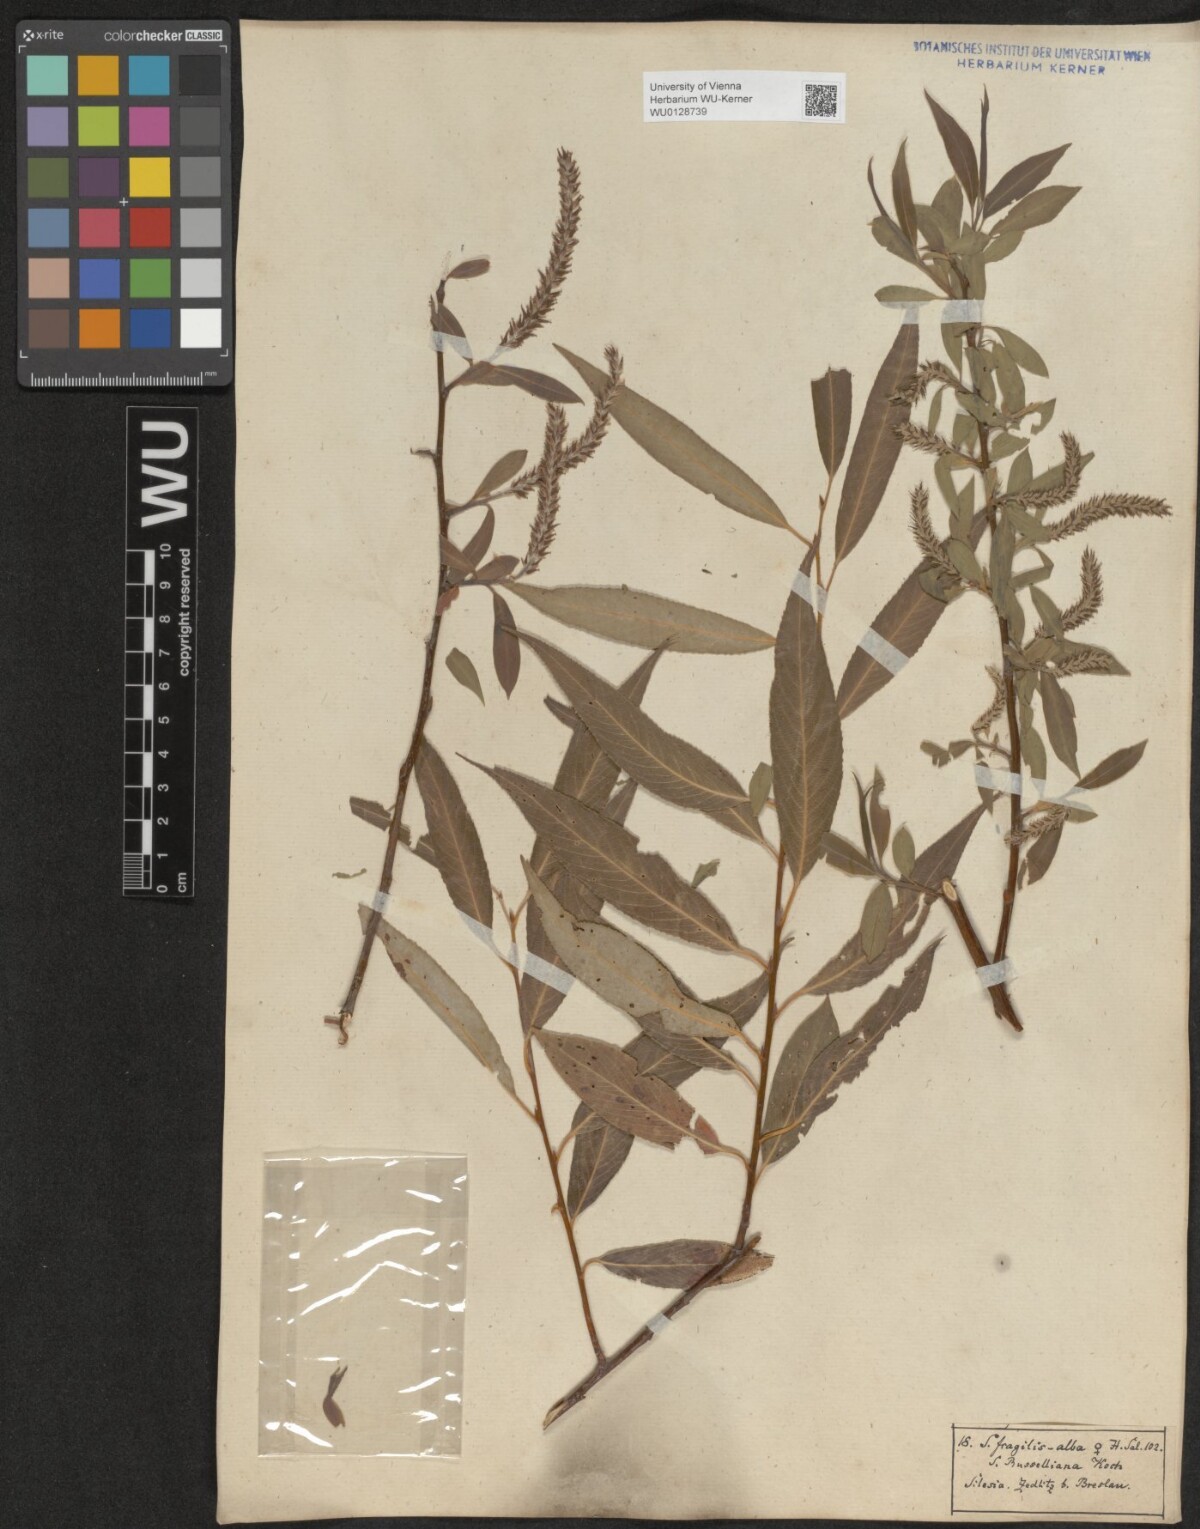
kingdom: Plantae
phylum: Tracheophyta
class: Magnoliopsida
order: Malpighiales
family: Salicaceae
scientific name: Salicaceae
